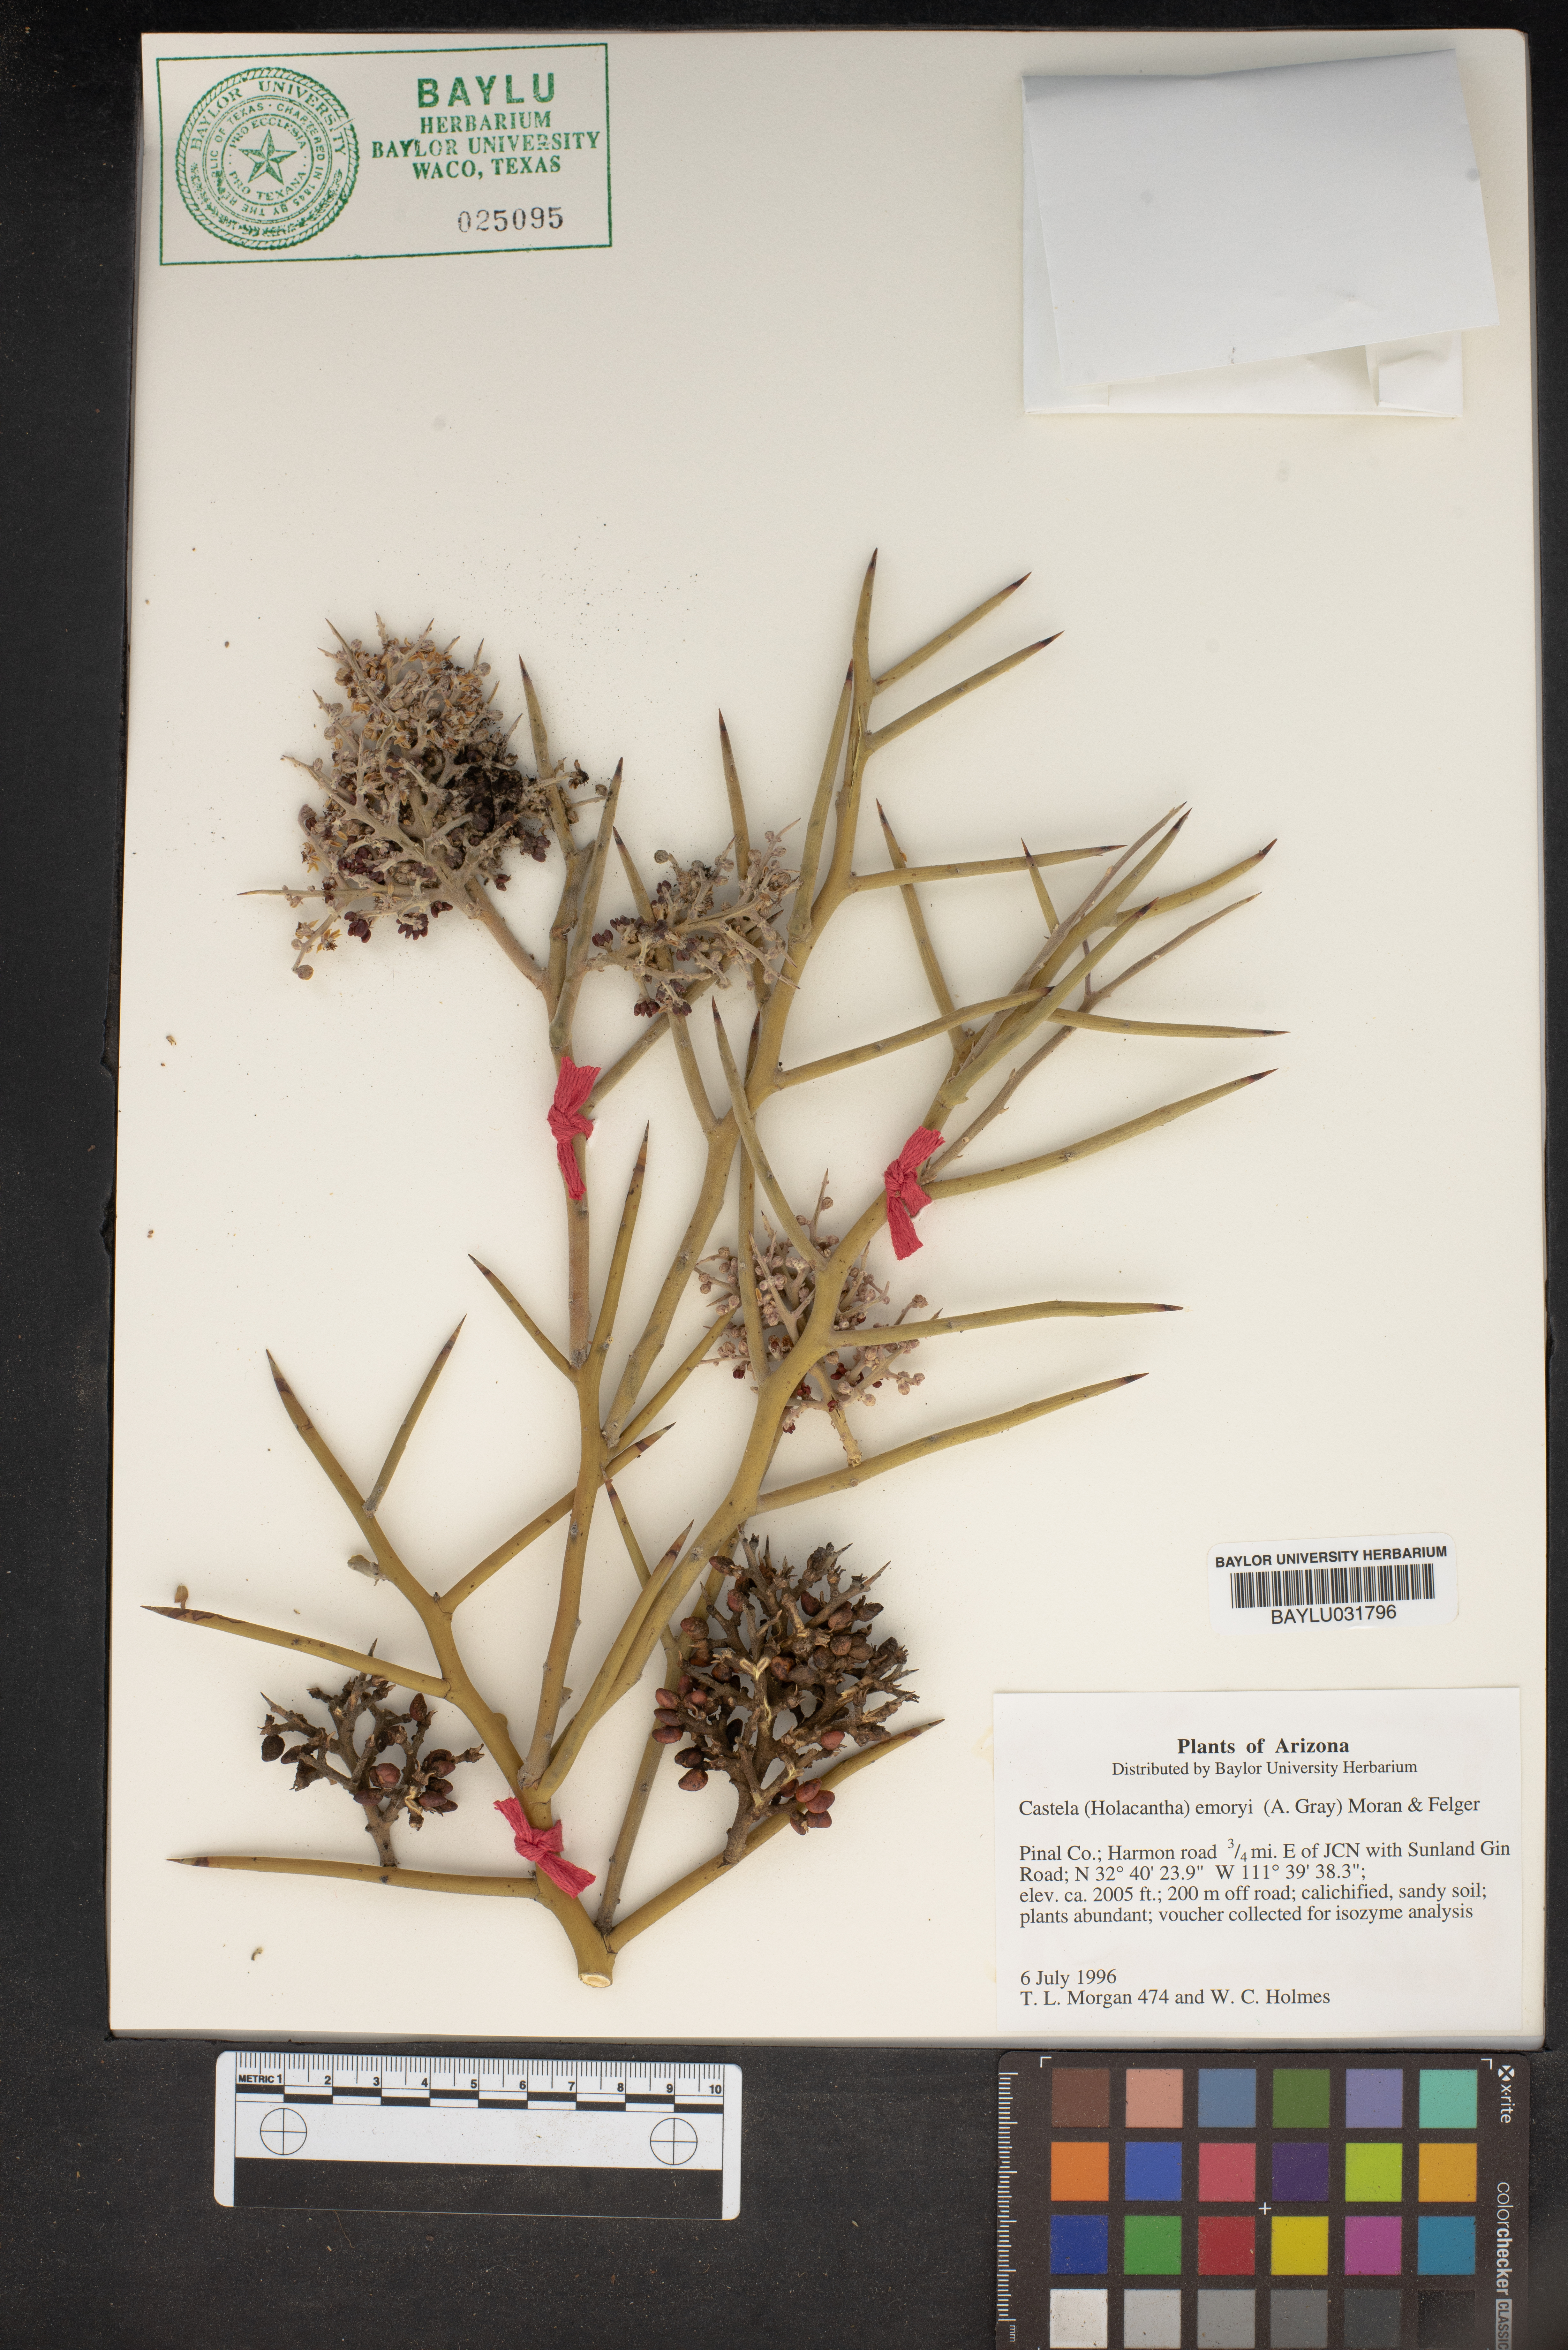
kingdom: Plantae
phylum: Tracheophyta
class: Magnoliopsida
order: Sapindales
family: Simaroubaceae
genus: Holacantha
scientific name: Holacantha emoryi
